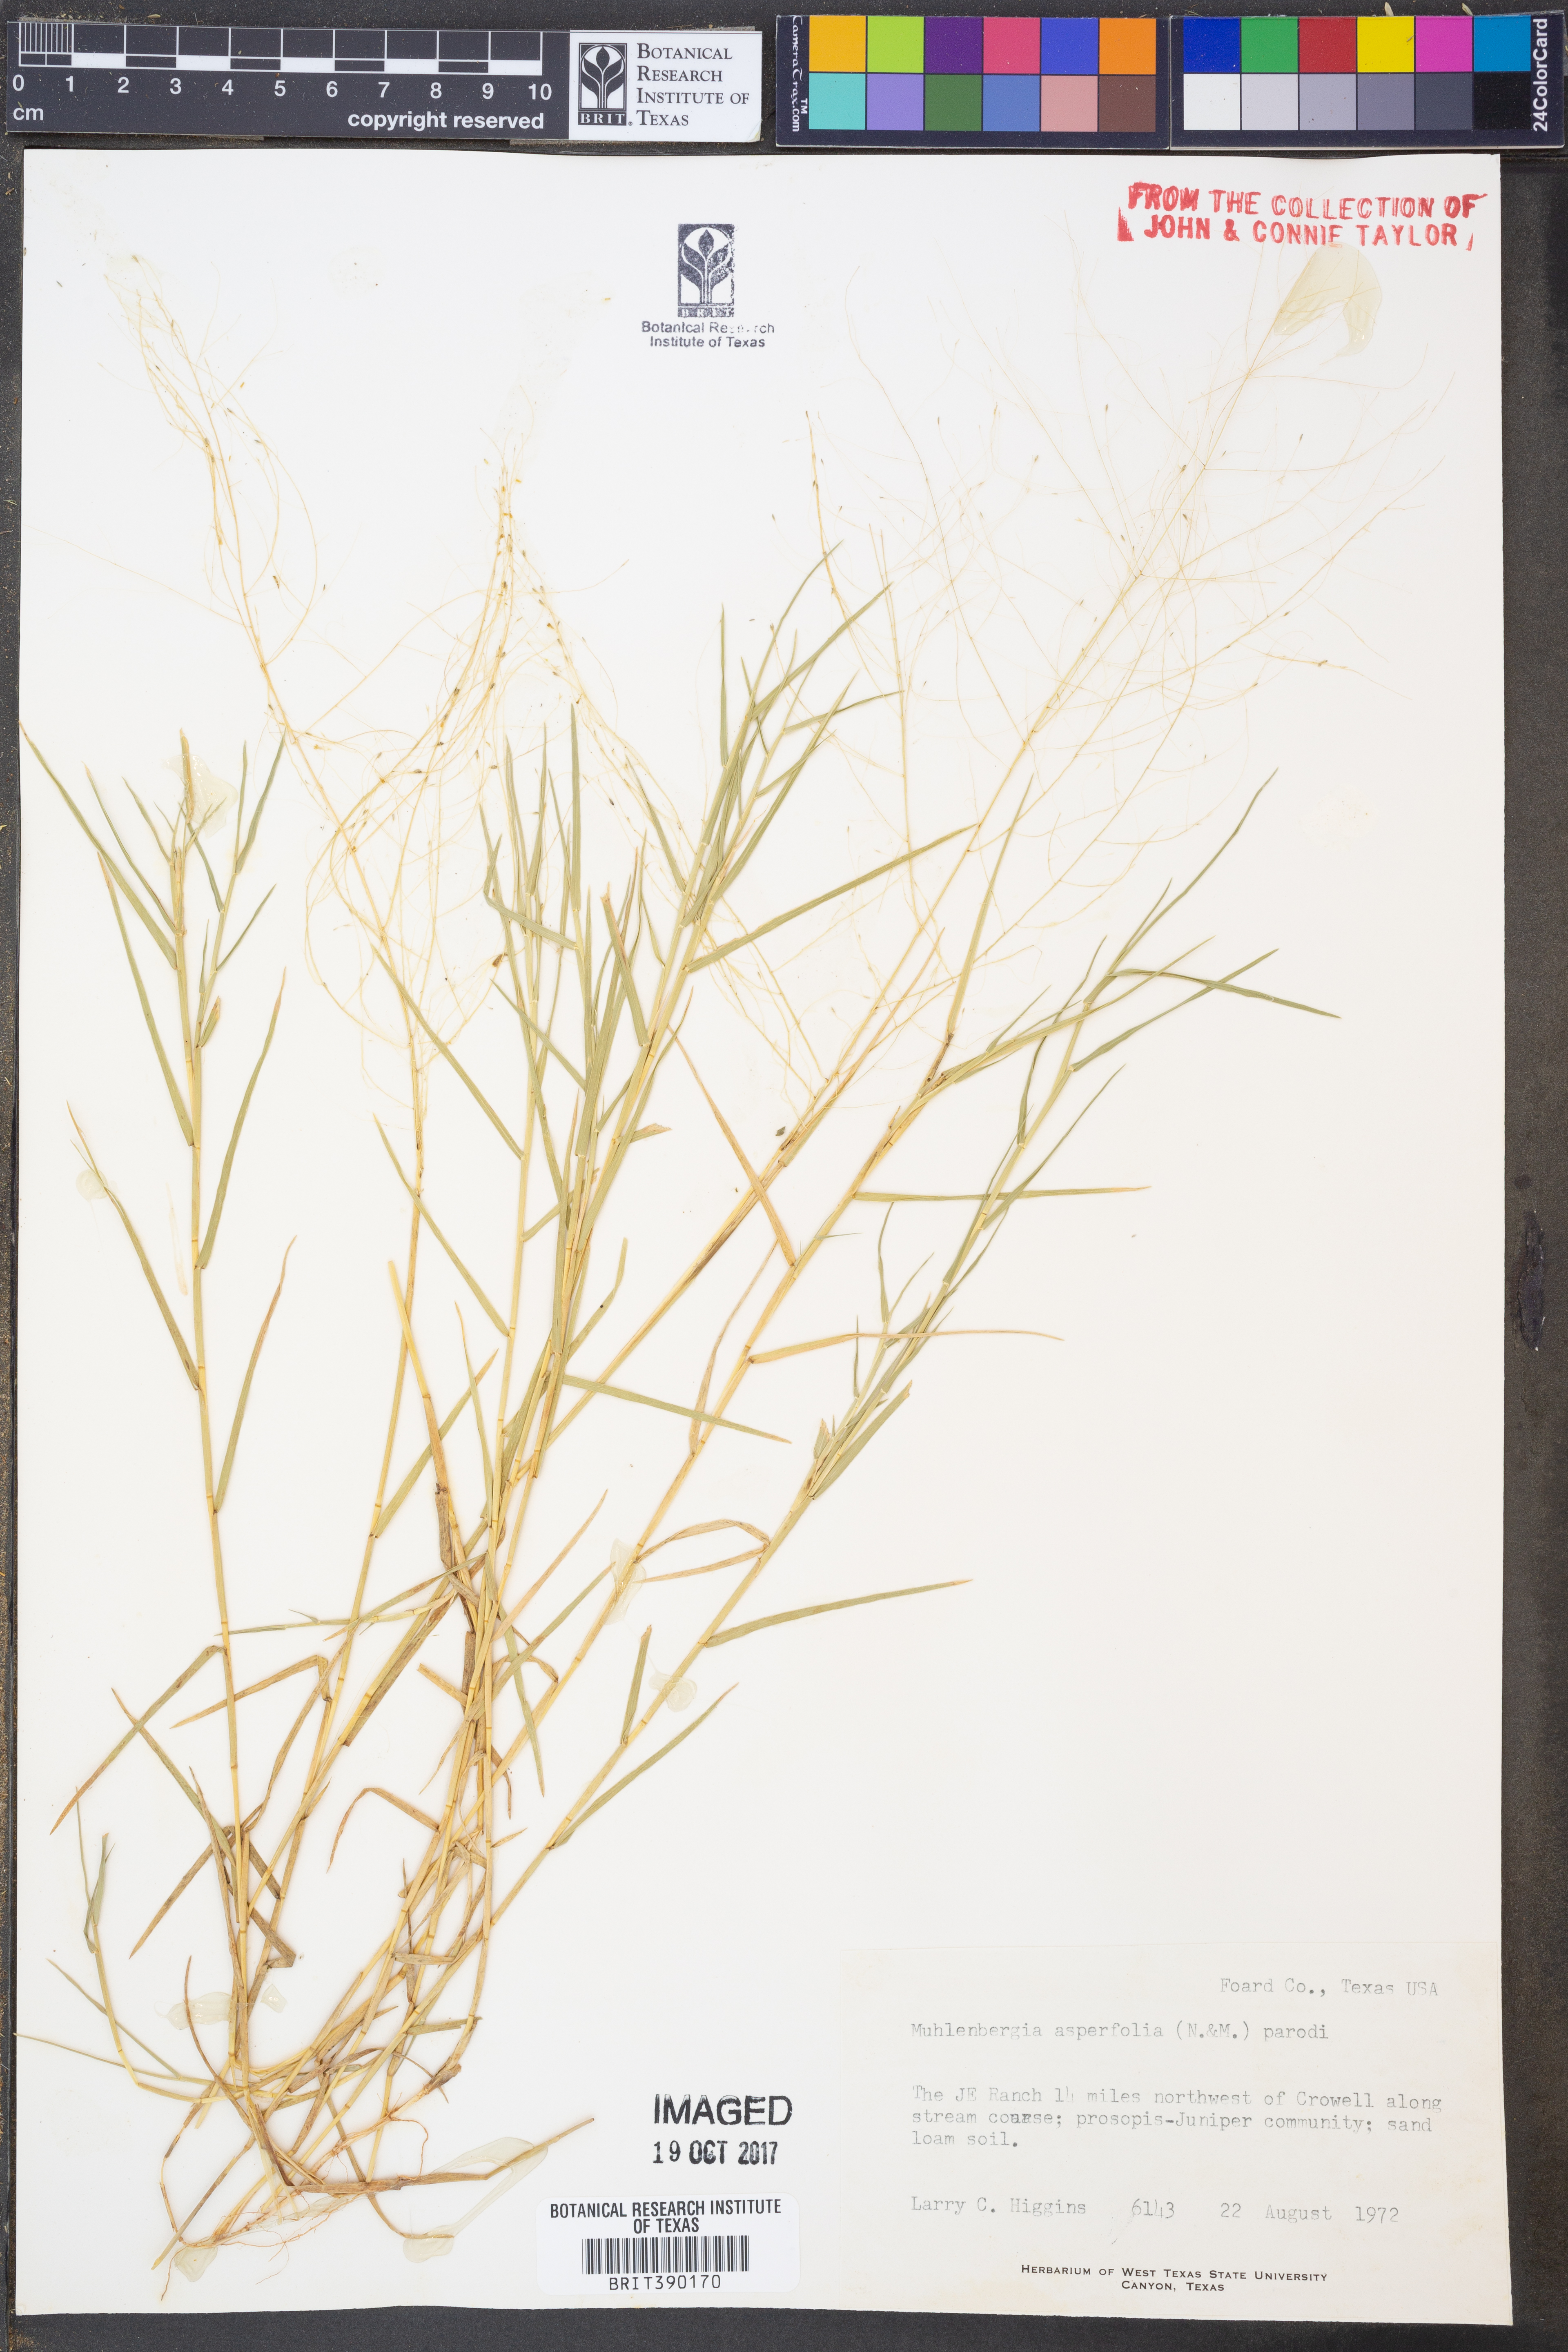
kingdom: Plantae
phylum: Tracheophyta
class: Liliopsida
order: Poales
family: Poaceae
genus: Muhlenbergia
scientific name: Muhlenbergia asperifolia
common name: Alkali muhly
